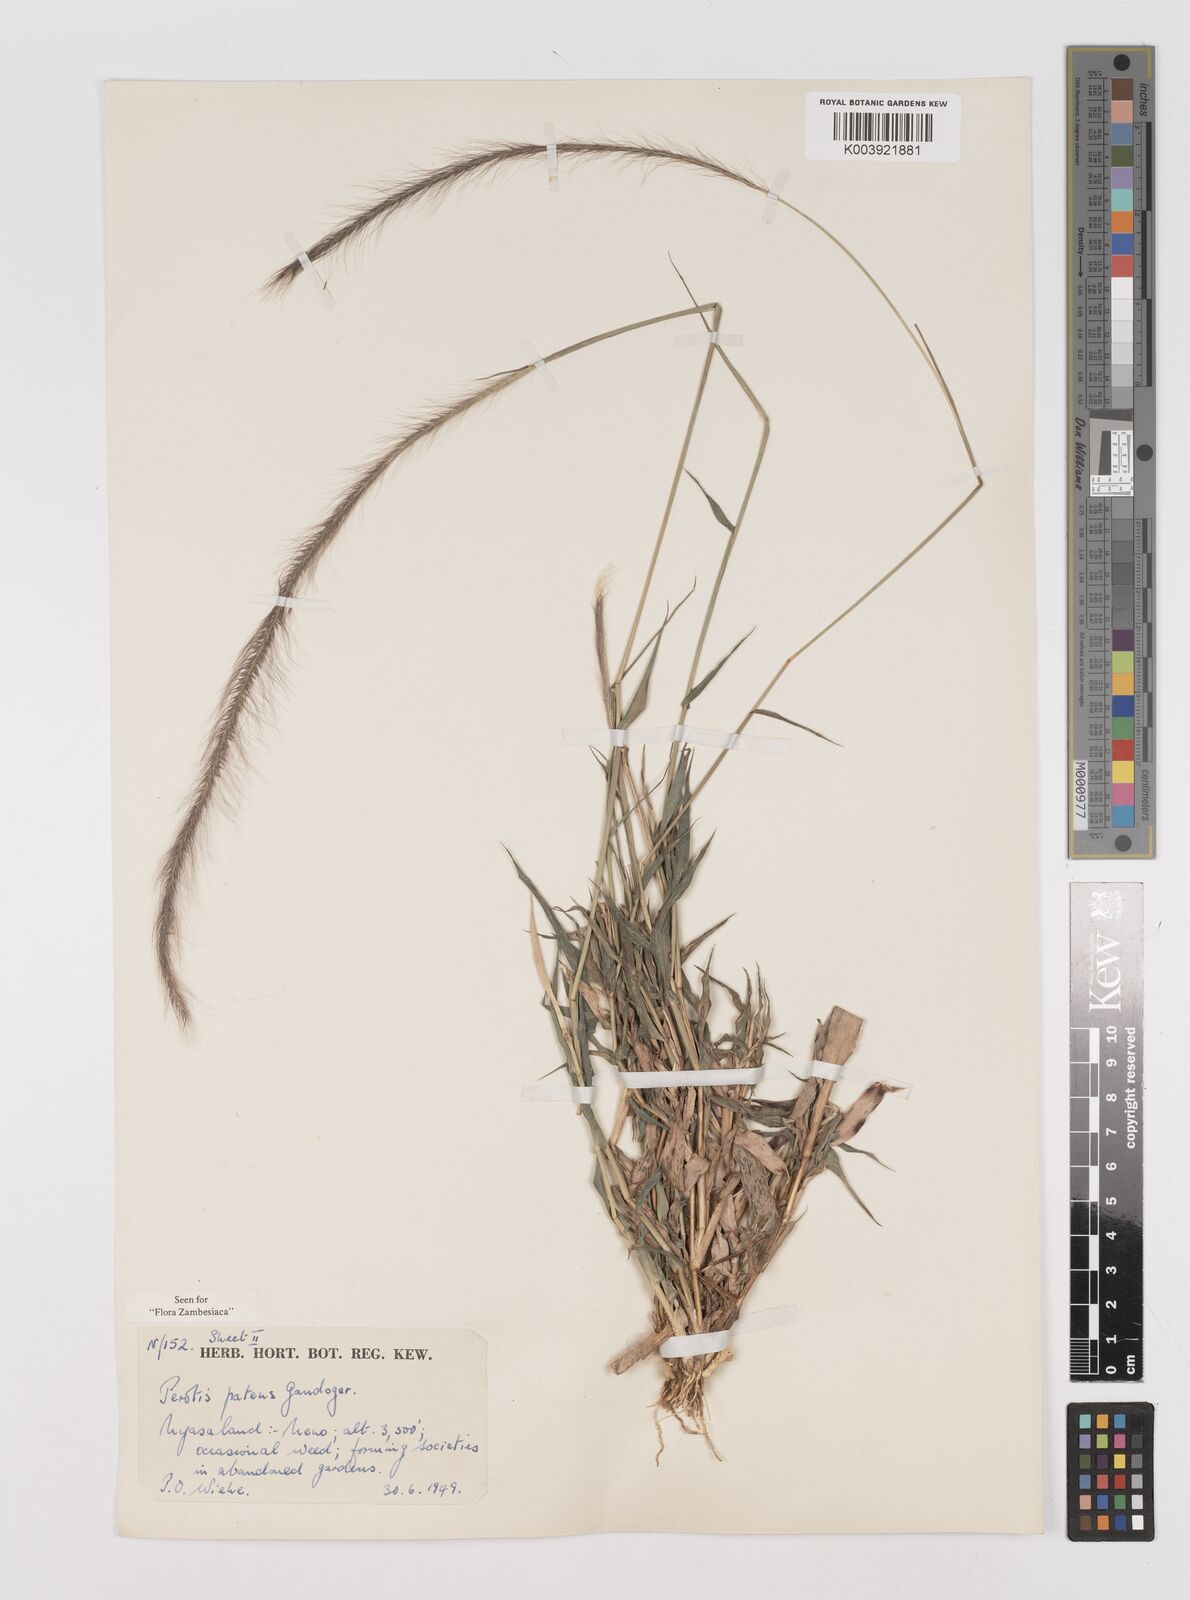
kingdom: Plantae
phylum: Tracheophyta
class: Liliopsida
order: Poales
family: Poaceae
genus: Perotis
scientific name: Perotis patens
